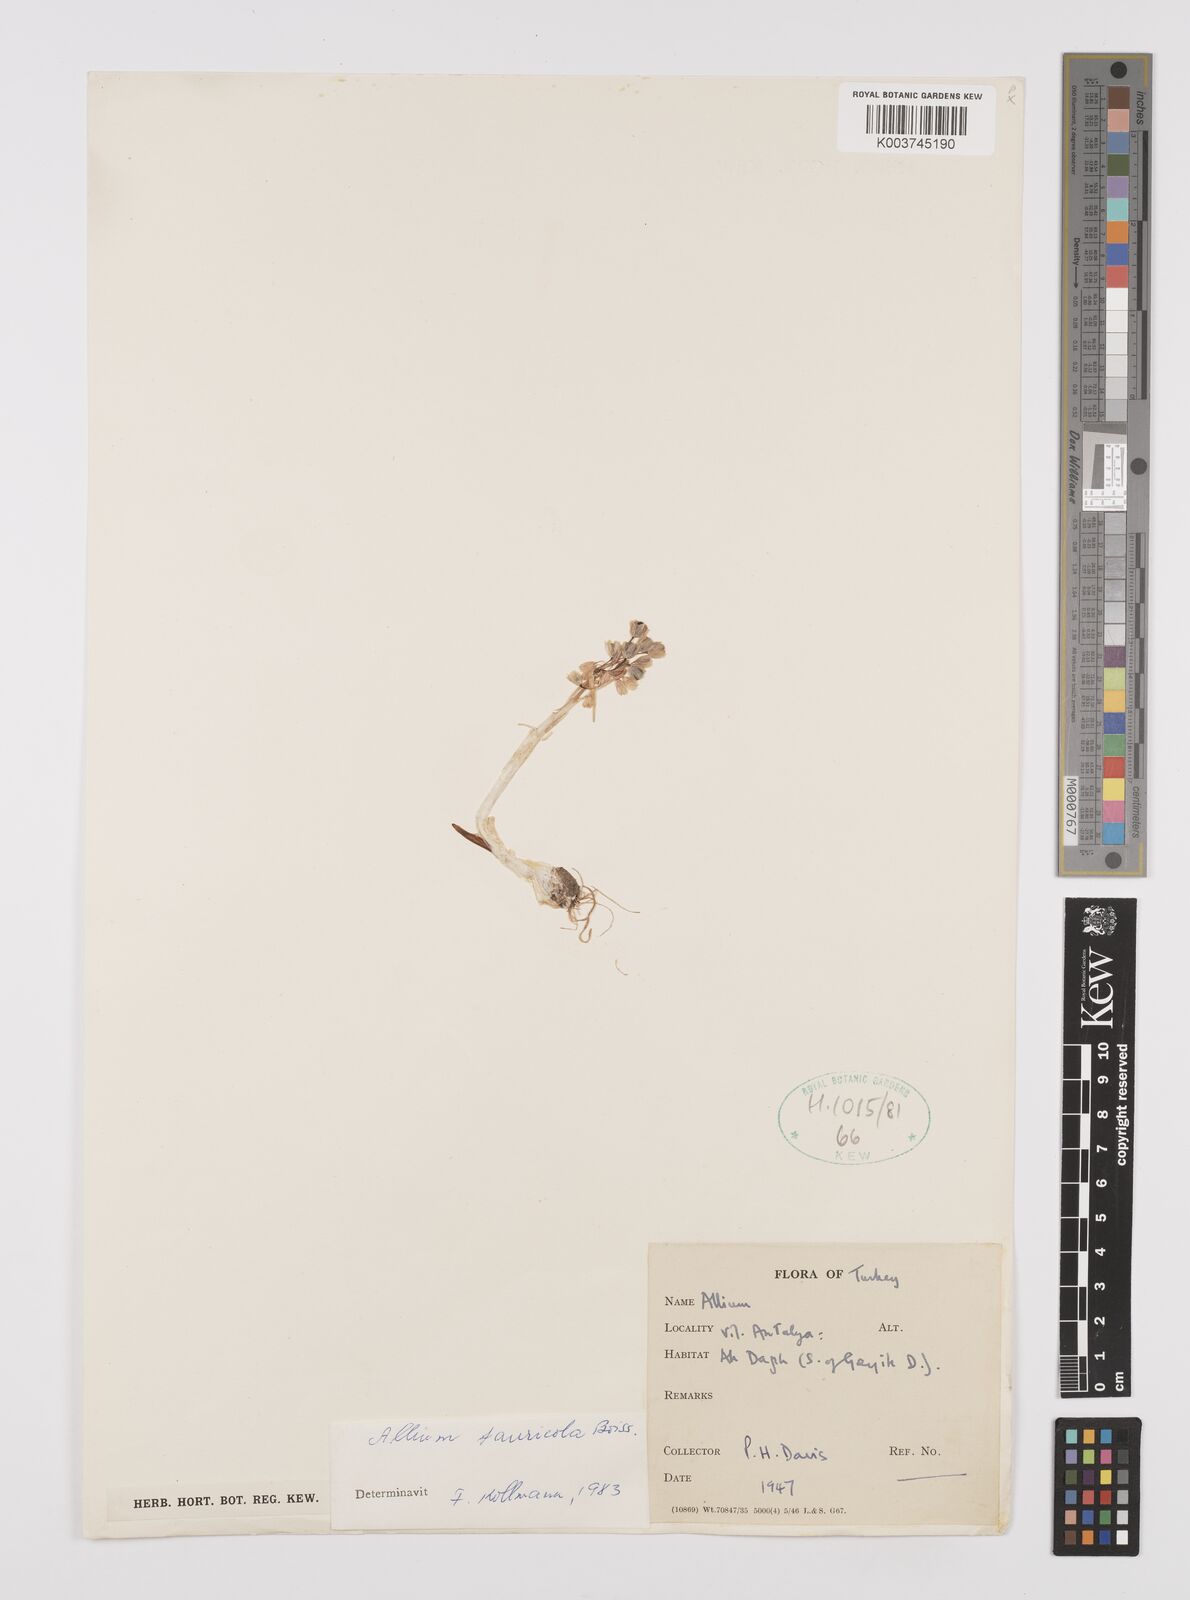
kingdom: Plantae
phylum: Tracheophyta
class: Liliopsida
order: Asparagales
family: Amaryllidaceae
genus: Allium
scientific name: Allium tauricola
